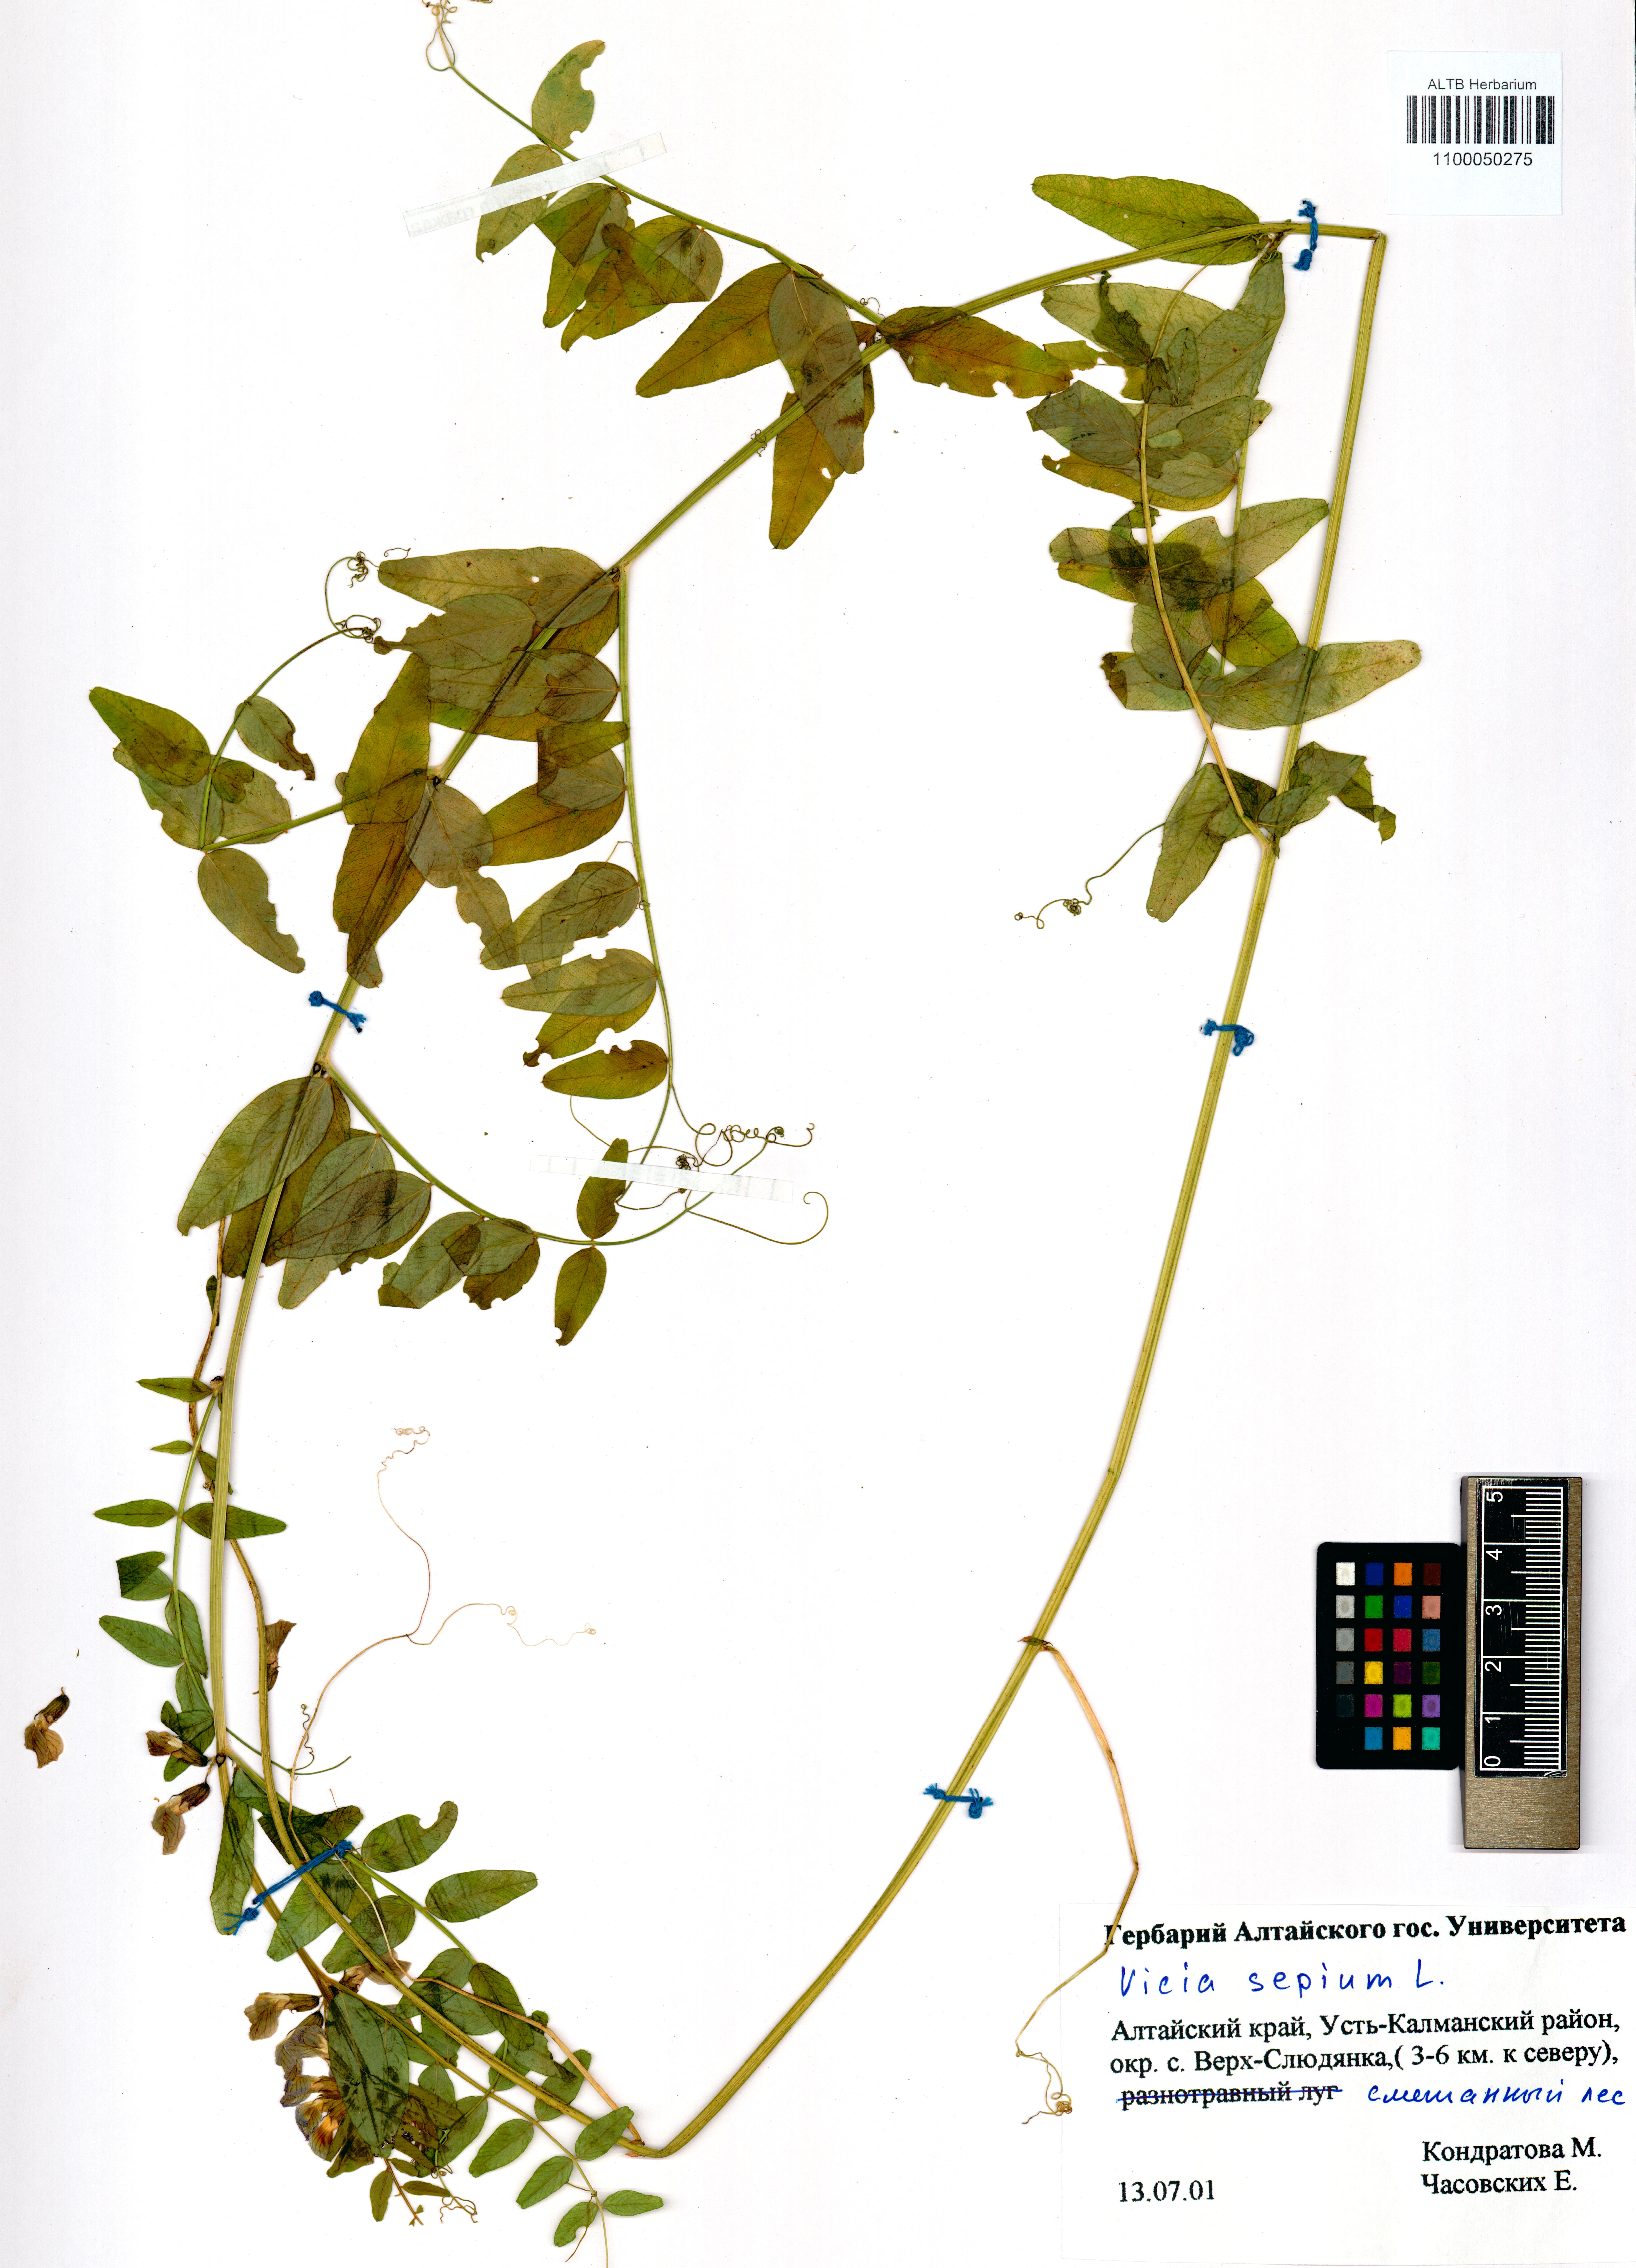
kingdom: Plantae
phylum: Tracheophyta
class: Magnoliopsida
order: Fabales
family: Fabaceae
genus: Vicia
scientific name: Vicia sepium
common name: Bush vetch
